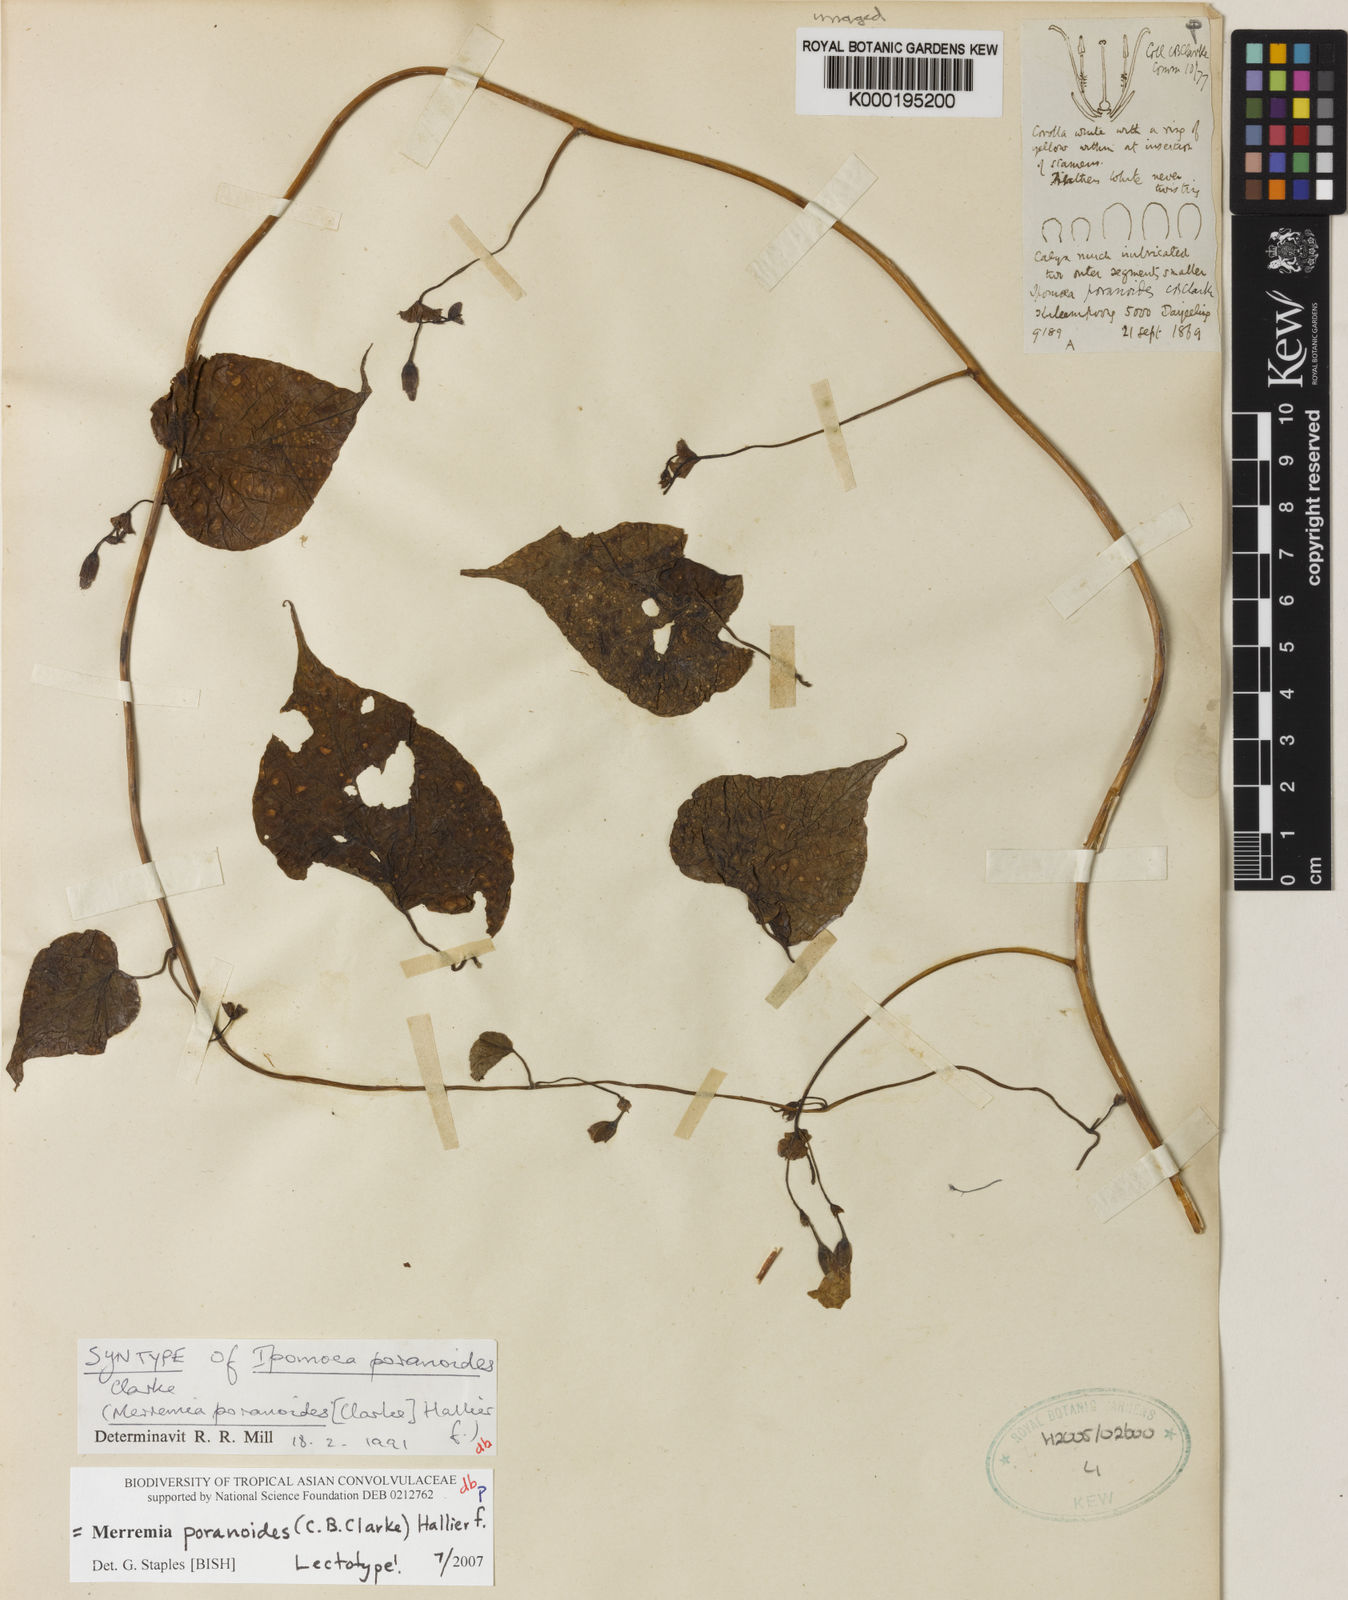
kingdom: Plantae
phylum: Tracheophyta
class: Magnoliopsida
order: Solanales
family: Convolvulaceae
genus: Merremia
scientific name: Merremia poranoides
